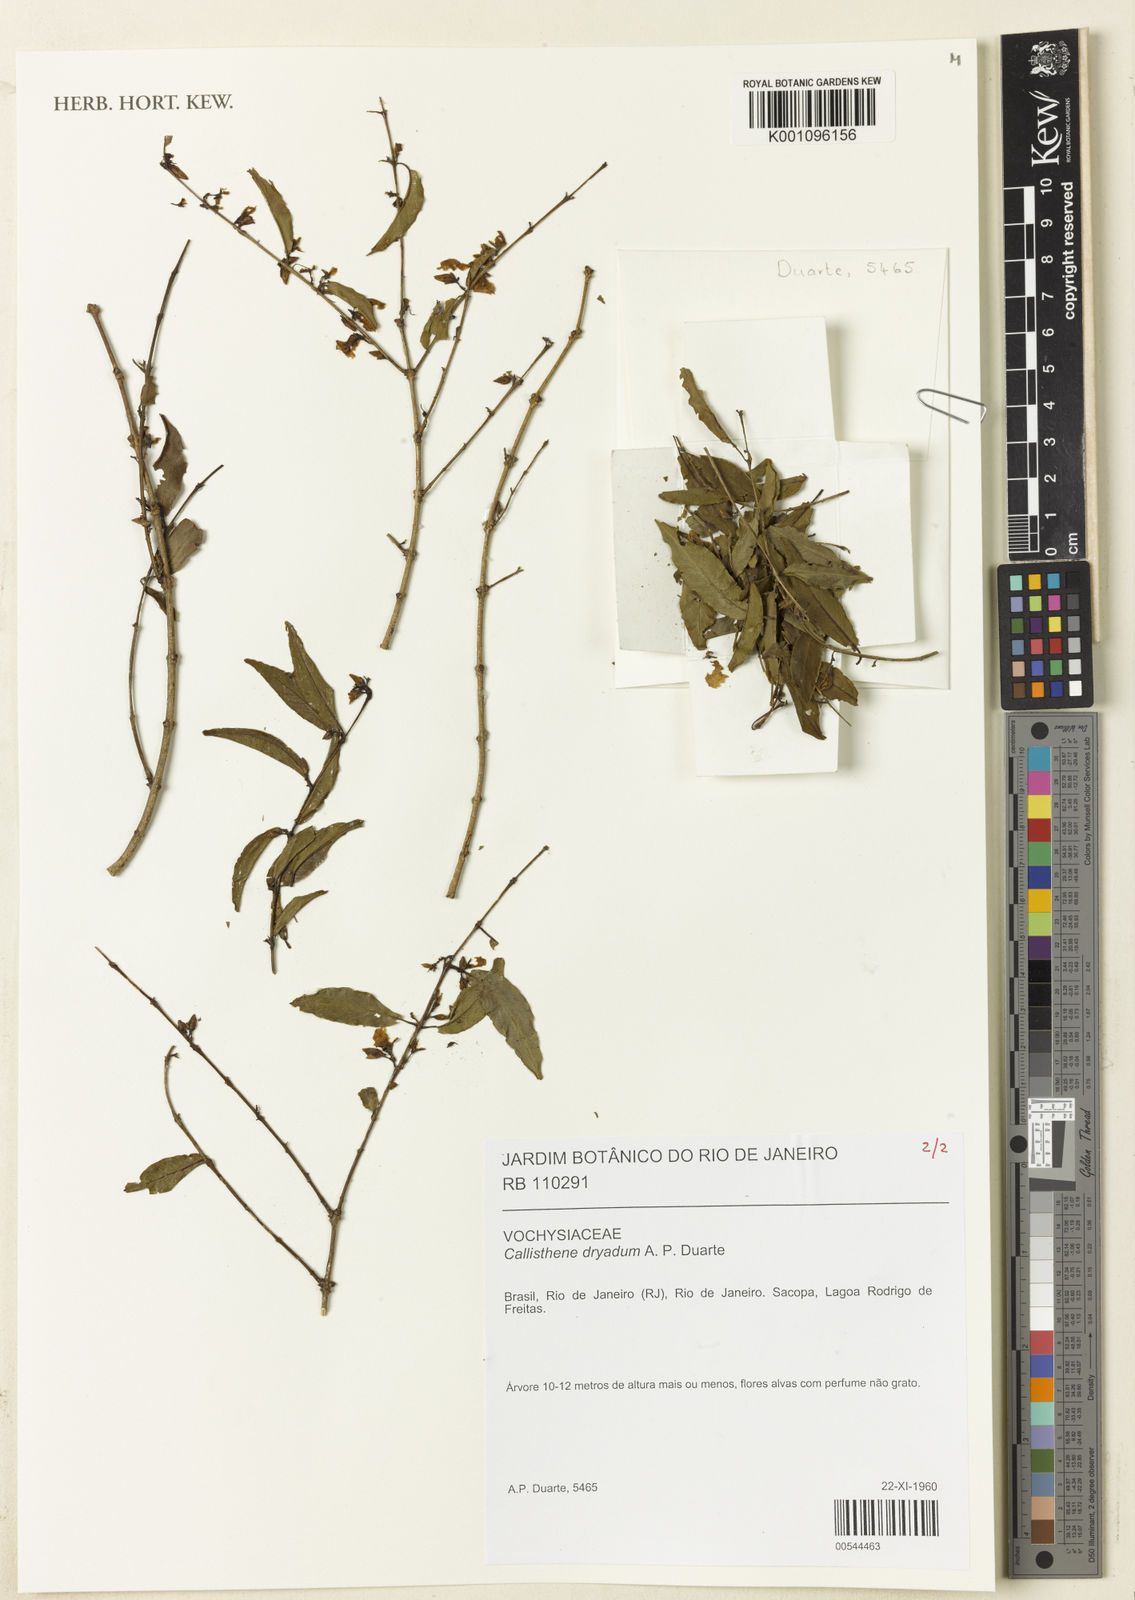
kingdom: Plantae
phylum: Tracheophyta
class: Magnoliopsida
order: Myrtales
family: Vochysiaceae
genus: Callisthene
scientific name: Callisthene dryadum
